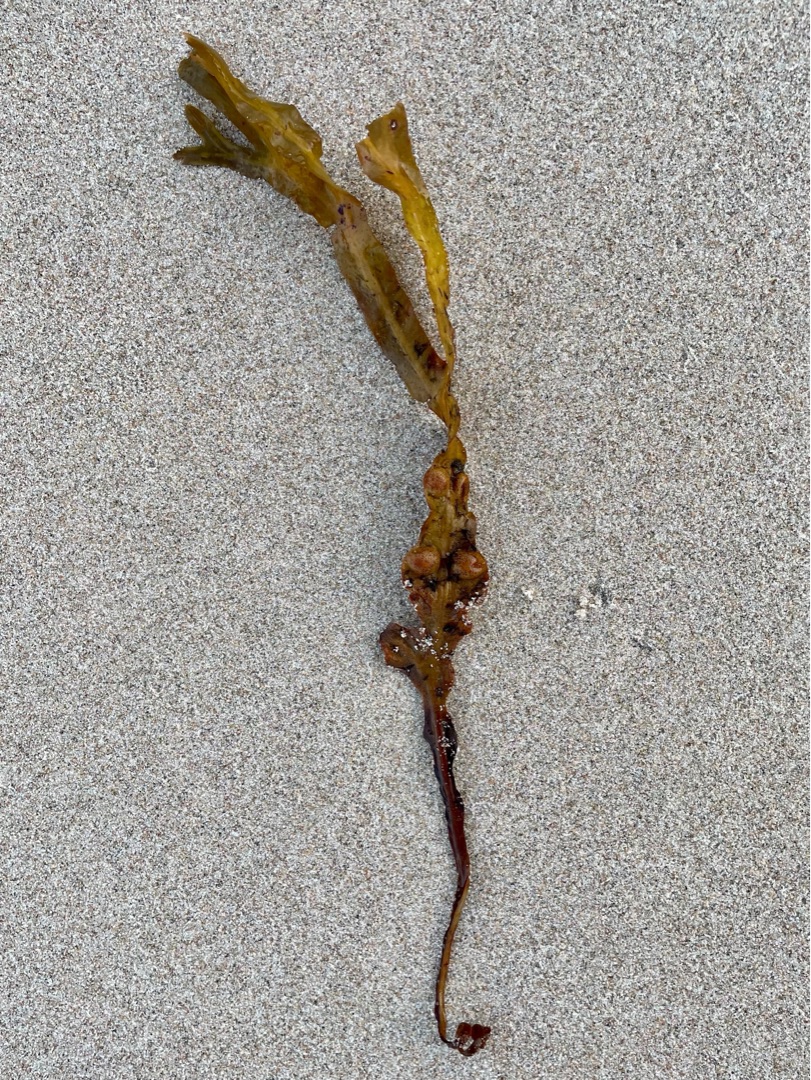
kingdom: Chromista
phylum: Ochrophyta
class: Phaeophyceae
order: Fucales
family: Fucaceae
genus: Fucus
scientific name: Fucus vesiculosus
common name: Blæretang
